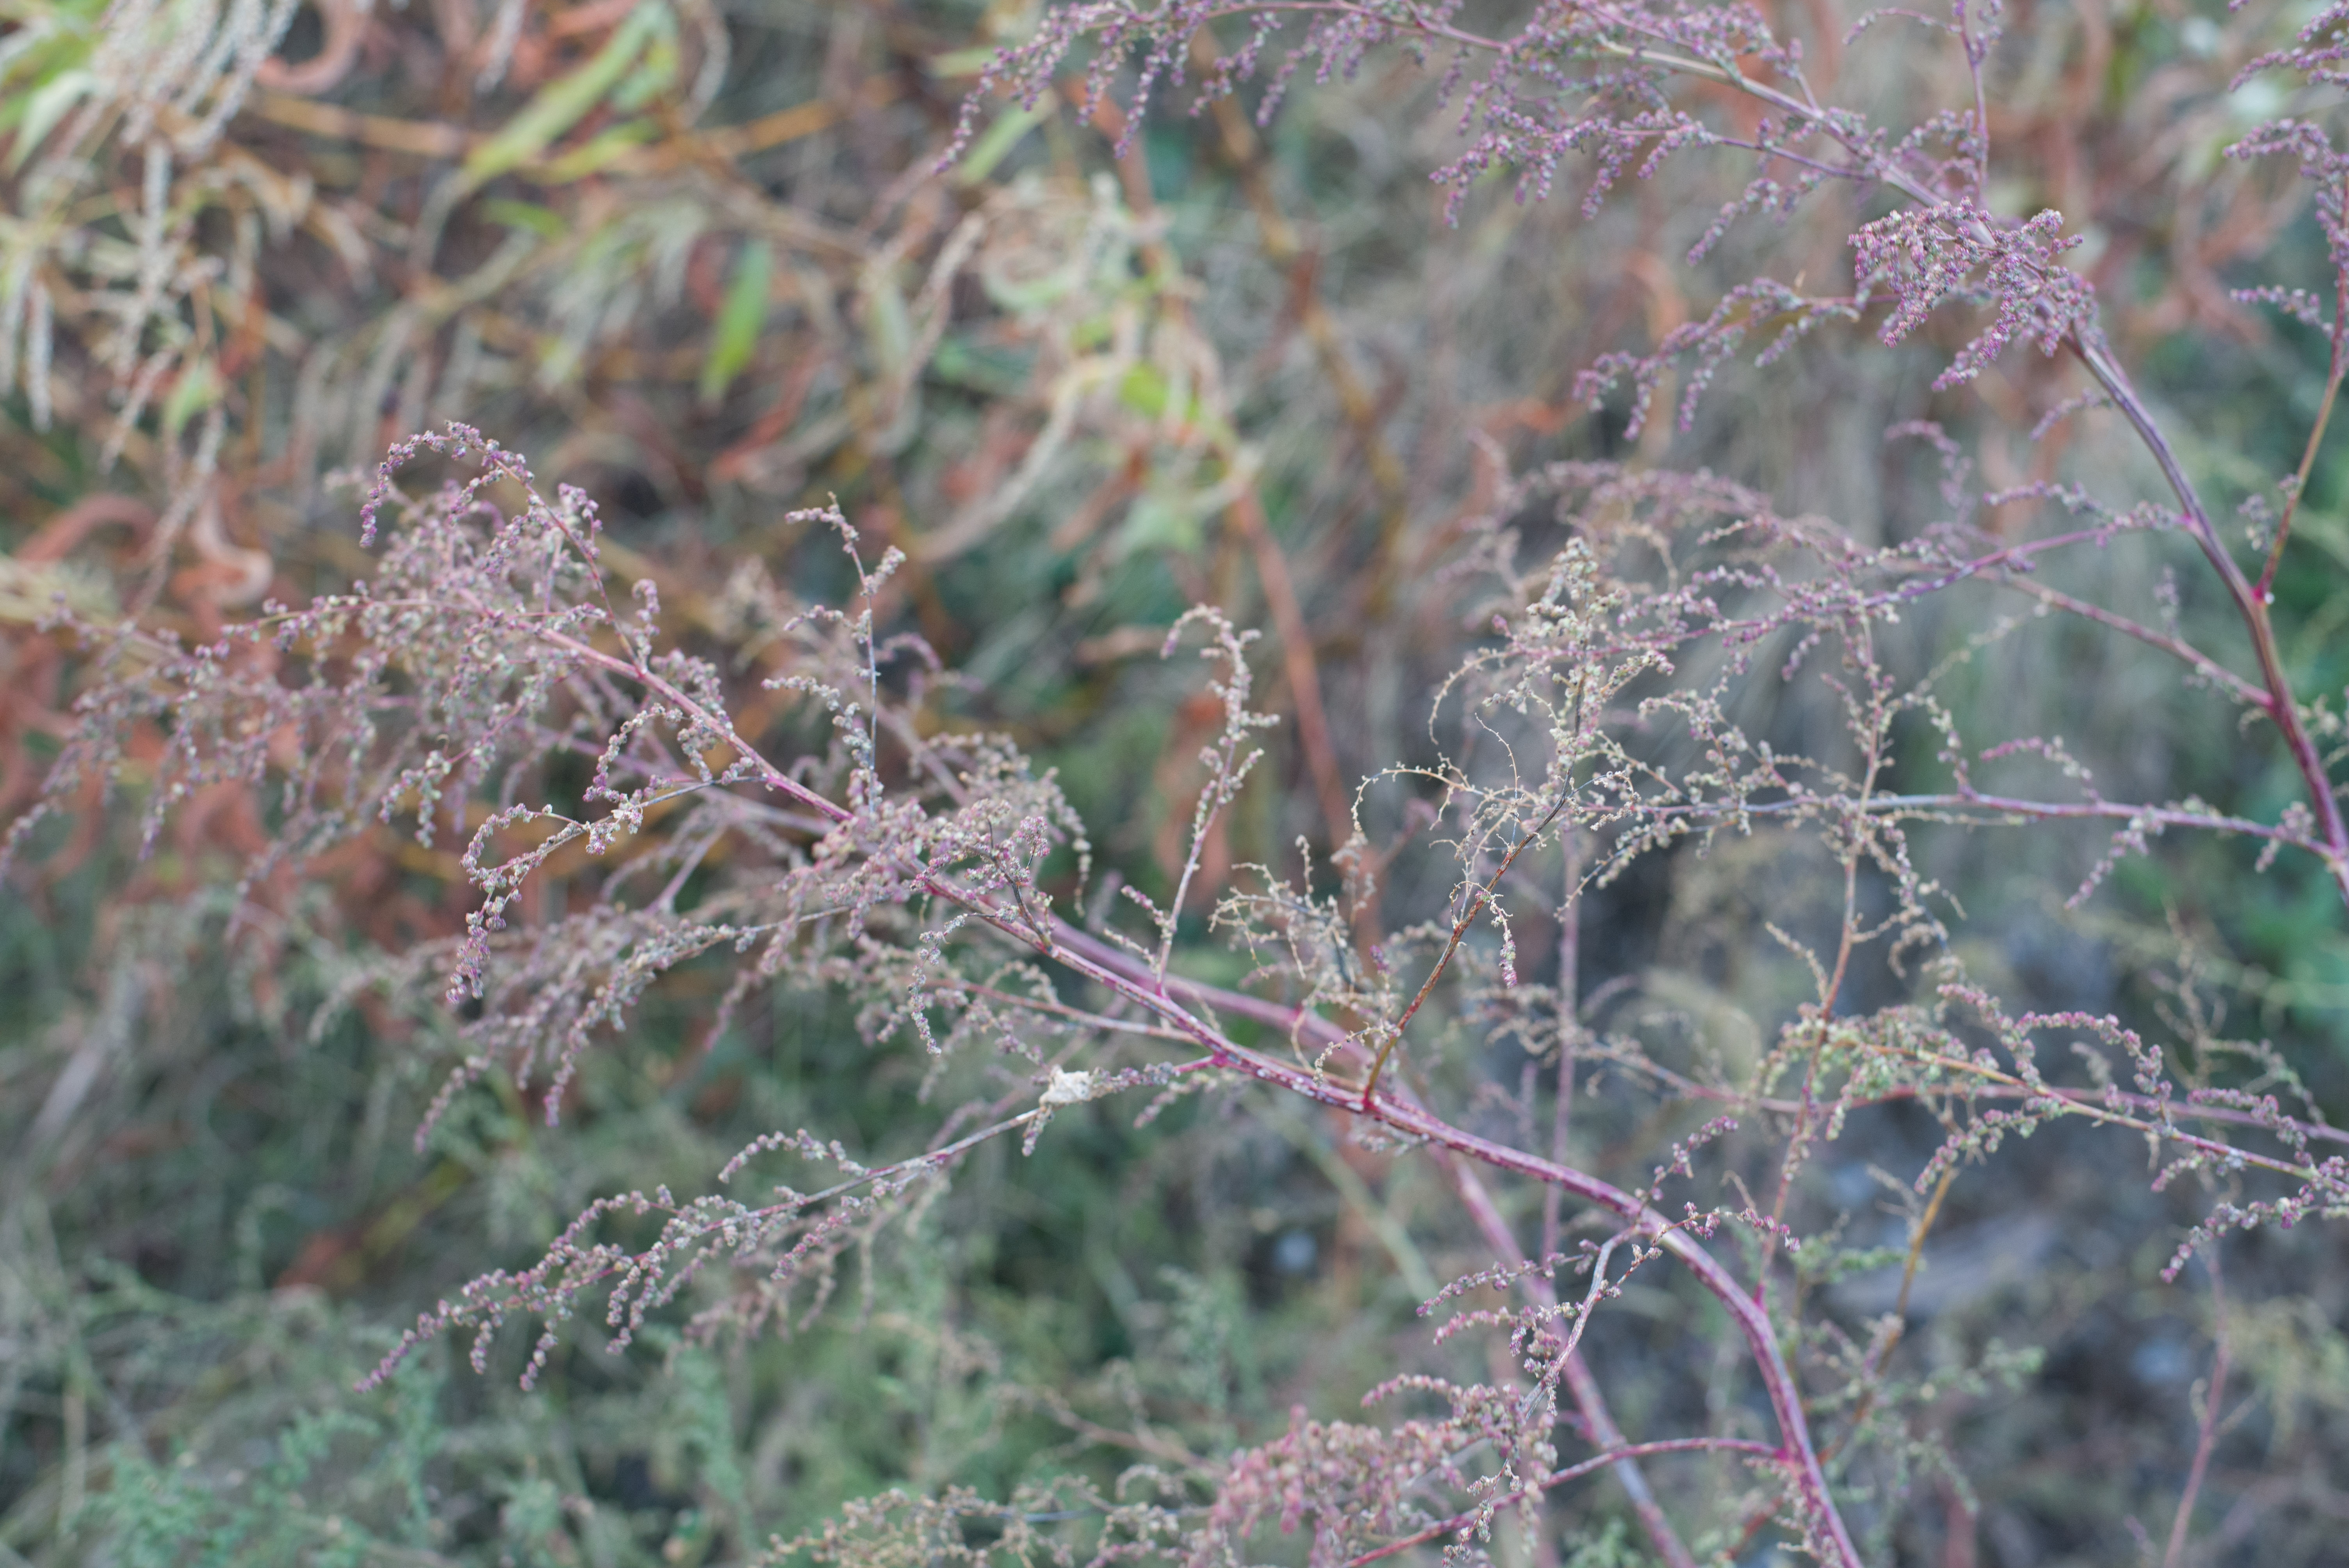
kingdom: Plantae
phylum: Tracheophyta
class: Magnoliopsida
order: Caryophyllales
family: Amaranthaceae
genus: Chenopodium
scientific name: Chenopodium album
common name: Lamb's quarters
